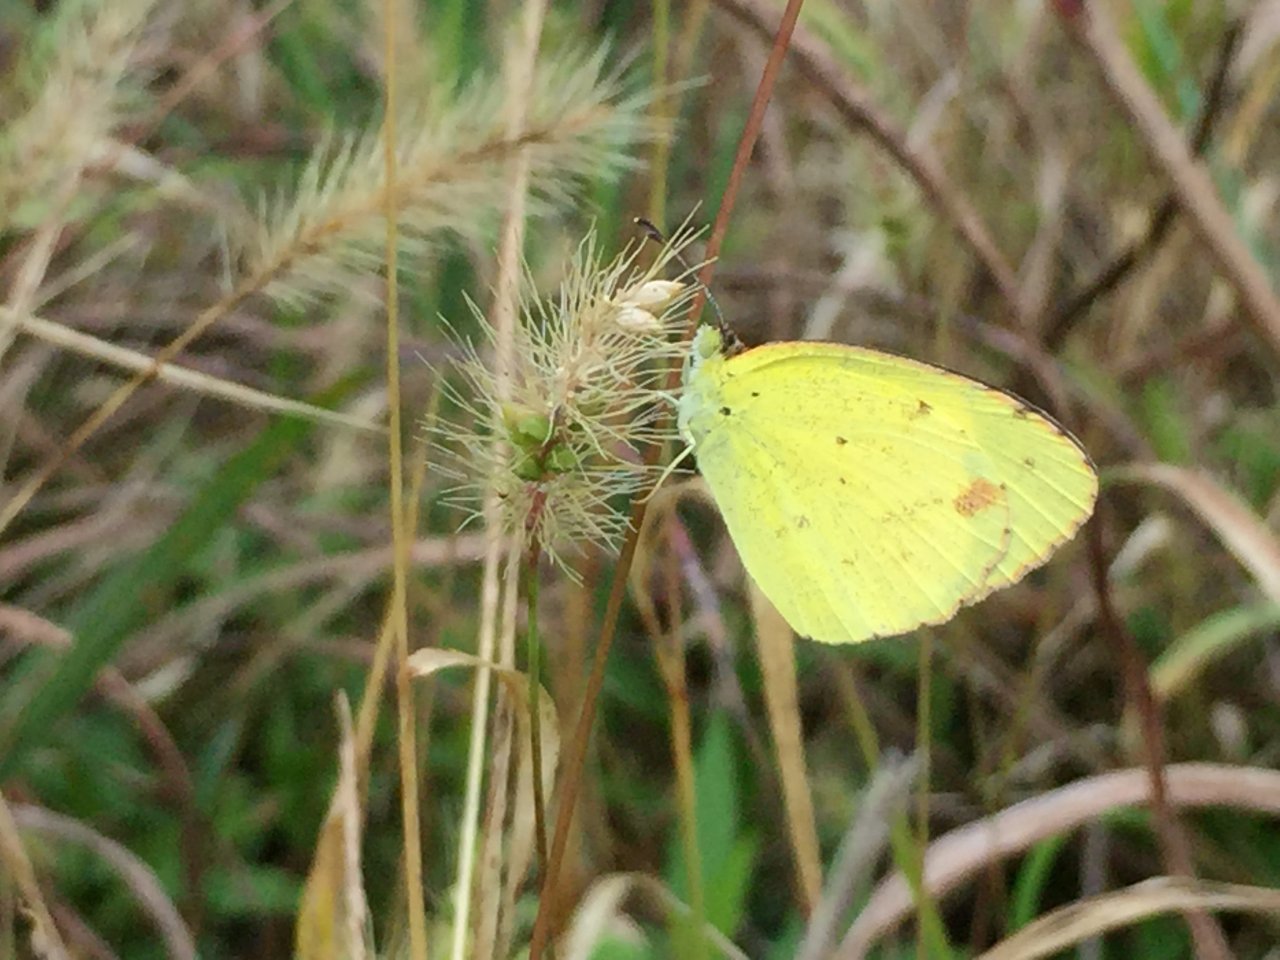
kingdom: Animalia
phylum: Arthropoda
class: Insecta
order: Lepidoptera
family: Pieridae
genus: Pyrisitia
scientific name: Pyrisitia lisa
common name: Little Yellow
